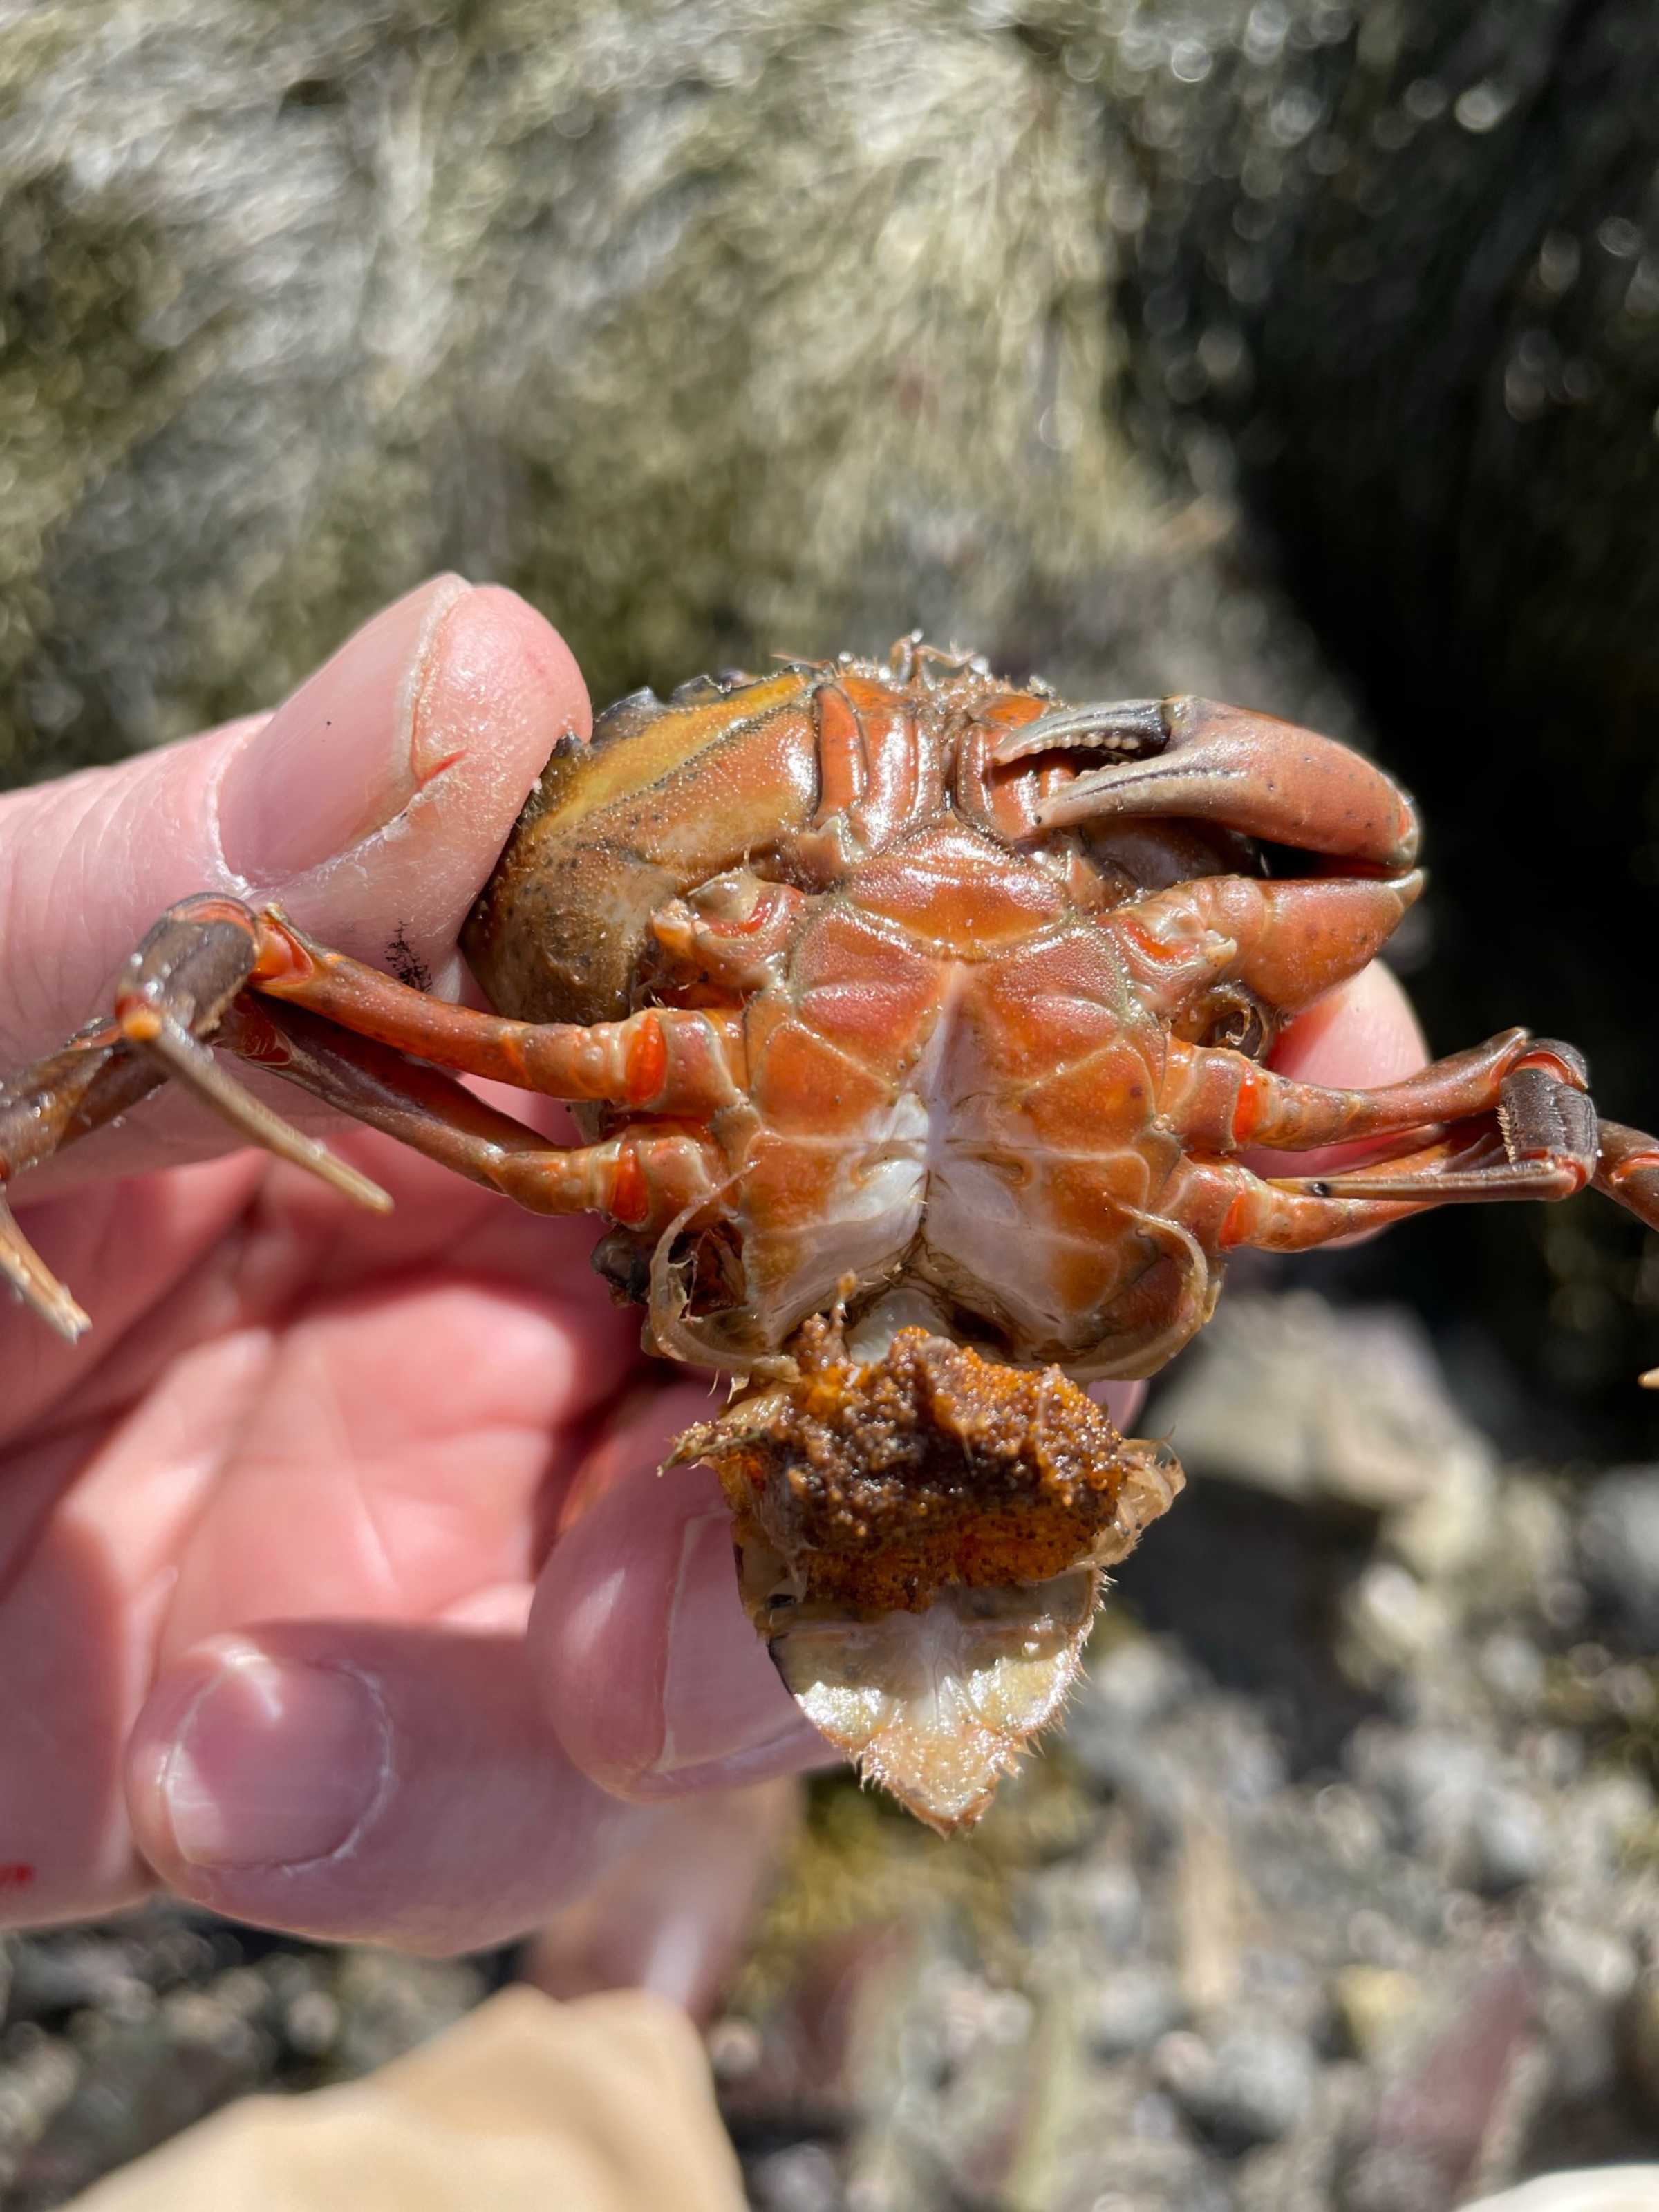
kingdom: Chromista
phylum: Ochrophyta
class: Phaeophyceae
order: Fucales
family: Fucaceae
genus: Ascophyllum
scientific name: Ascophyllum nodosum
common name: Rockweed
